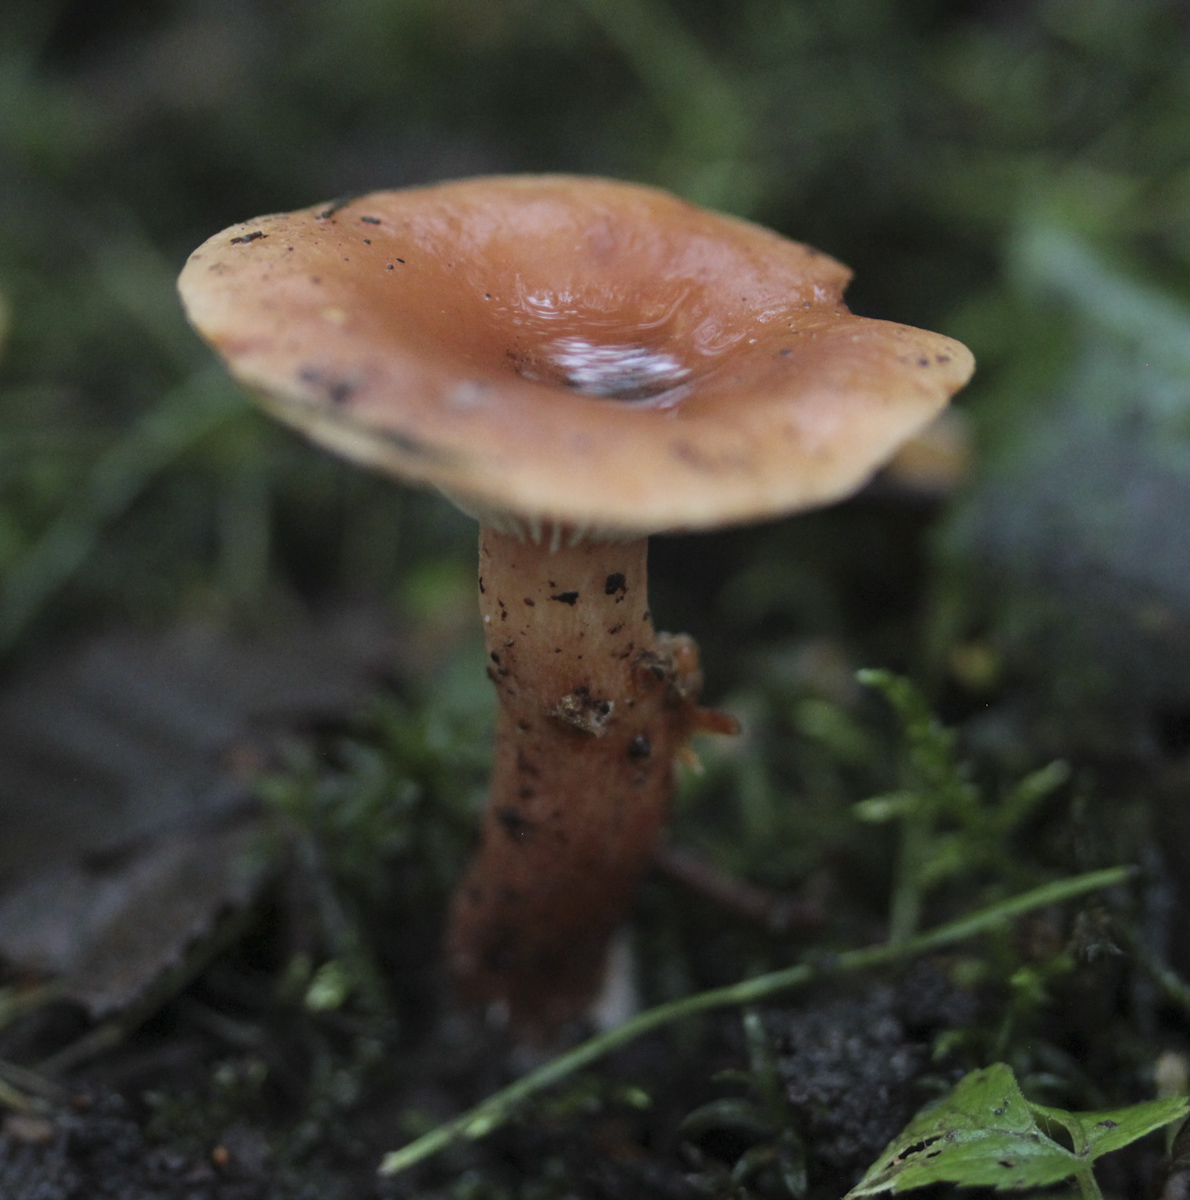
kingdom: Fungi
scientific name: Fungi
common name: Fungi
